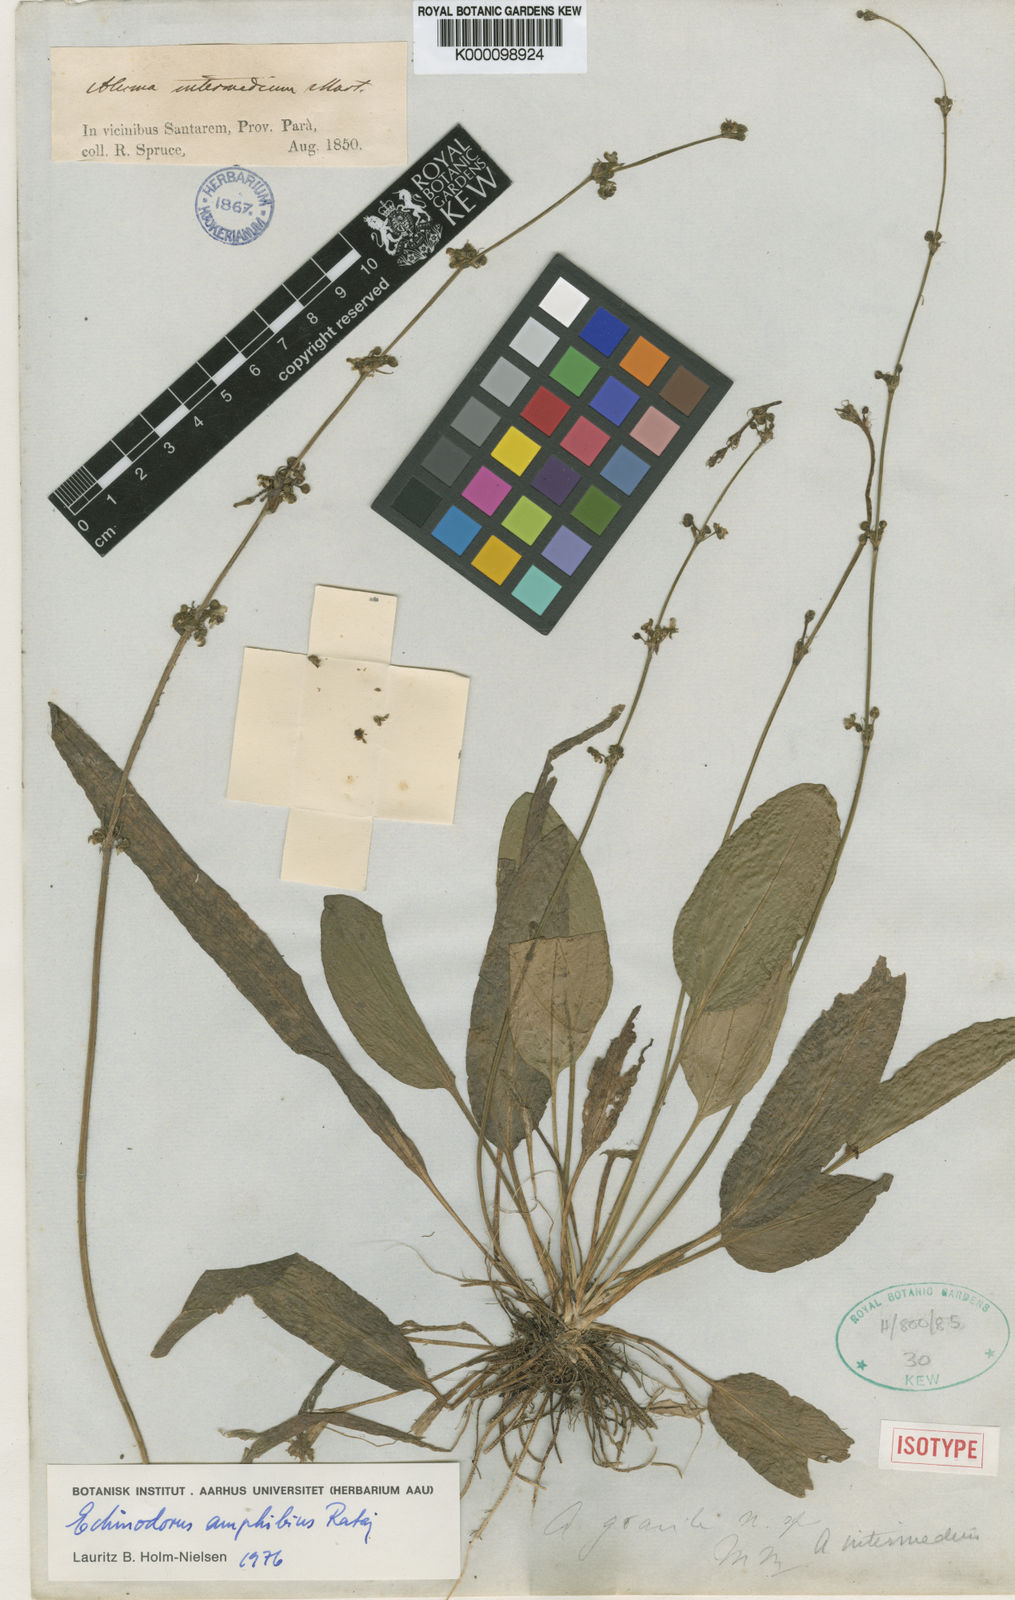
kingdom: Plantae
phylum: Tracheophyta
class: Liliopsida
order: Alismatales
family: Alismataceae
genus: Aquarius
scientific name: Aquarius grisebachii
